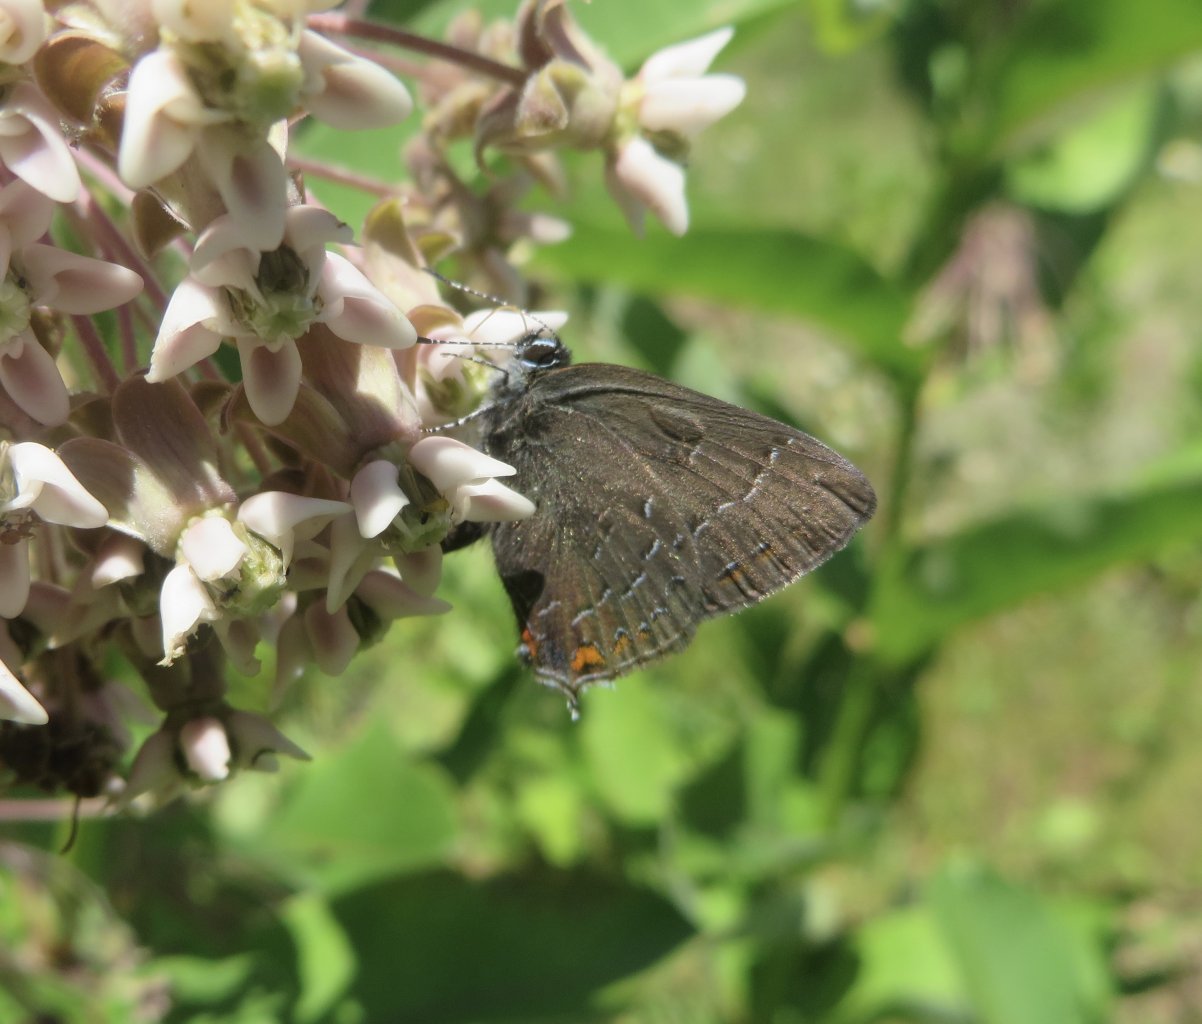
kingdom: Animalia
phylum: Arthropoda
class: Insecta
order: Lepidoptera
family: Lycaenidae
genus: Satyrium
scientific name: Satyrium calanus
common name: Banded Hairstreak
